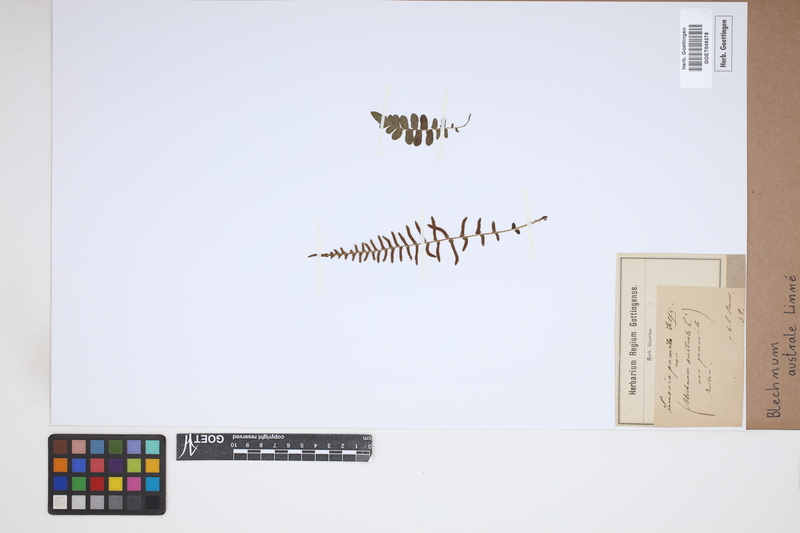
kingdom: Plantae
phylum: Tracheophyta
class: Polypodiopsida
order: Polypodiales
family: Blechnaceae
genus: Blechnum
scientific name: Blechnum australe
